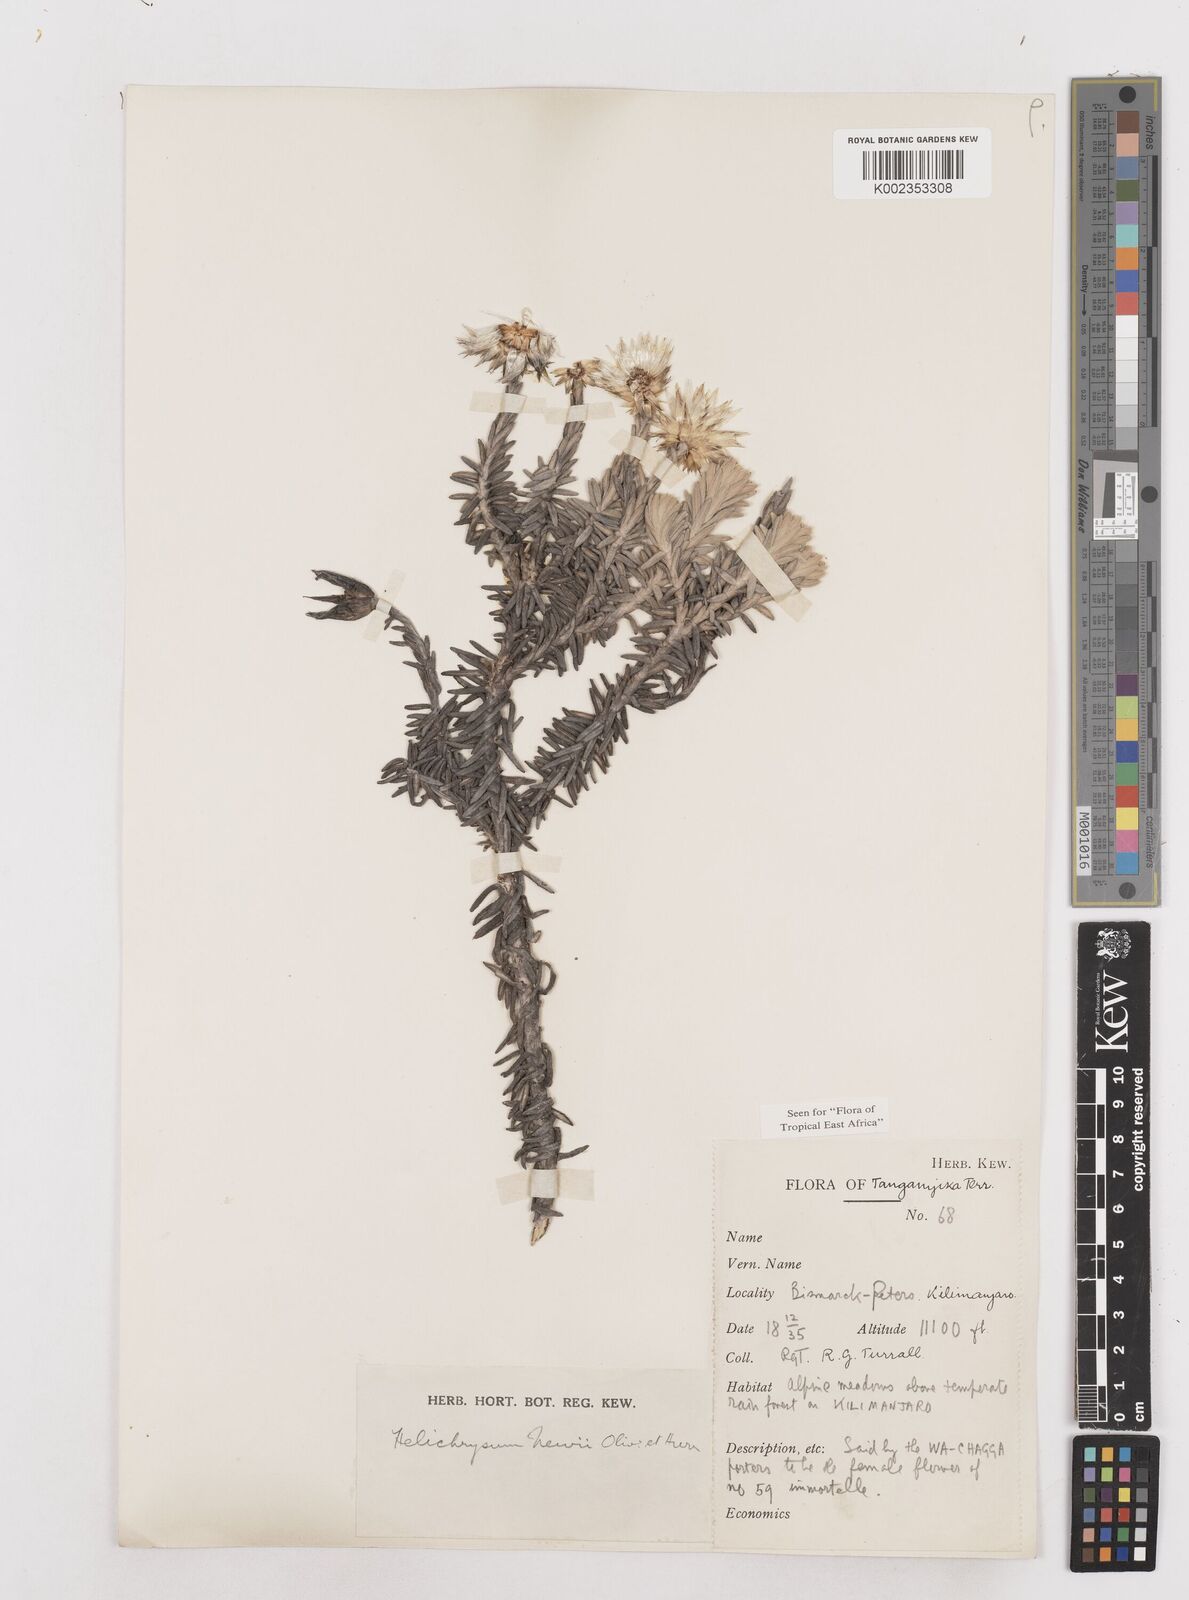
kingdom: Plantae
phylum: Tracheophyta
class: Magnoliopsida
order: Asterales
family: Asteraceae
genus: Helichrysum
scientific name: Helichrysum newii
